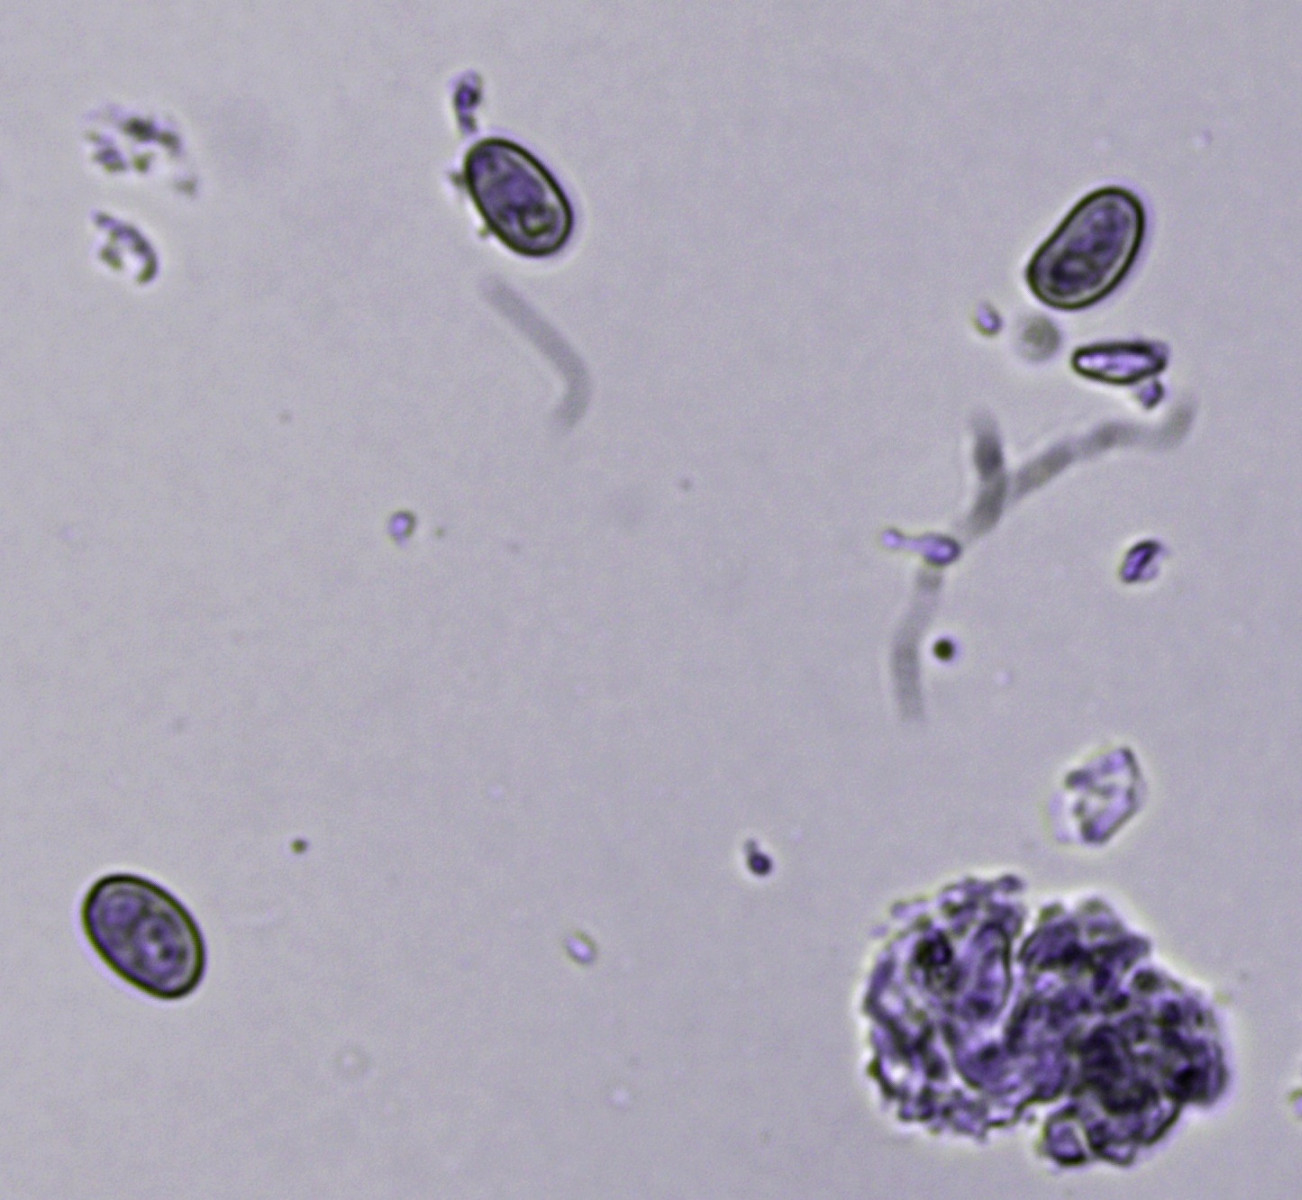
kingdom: Fungi
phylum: Basidiomycota
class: Agaricomycetes
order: Polyporales
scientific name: Polyporales
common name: poresvampordenen
